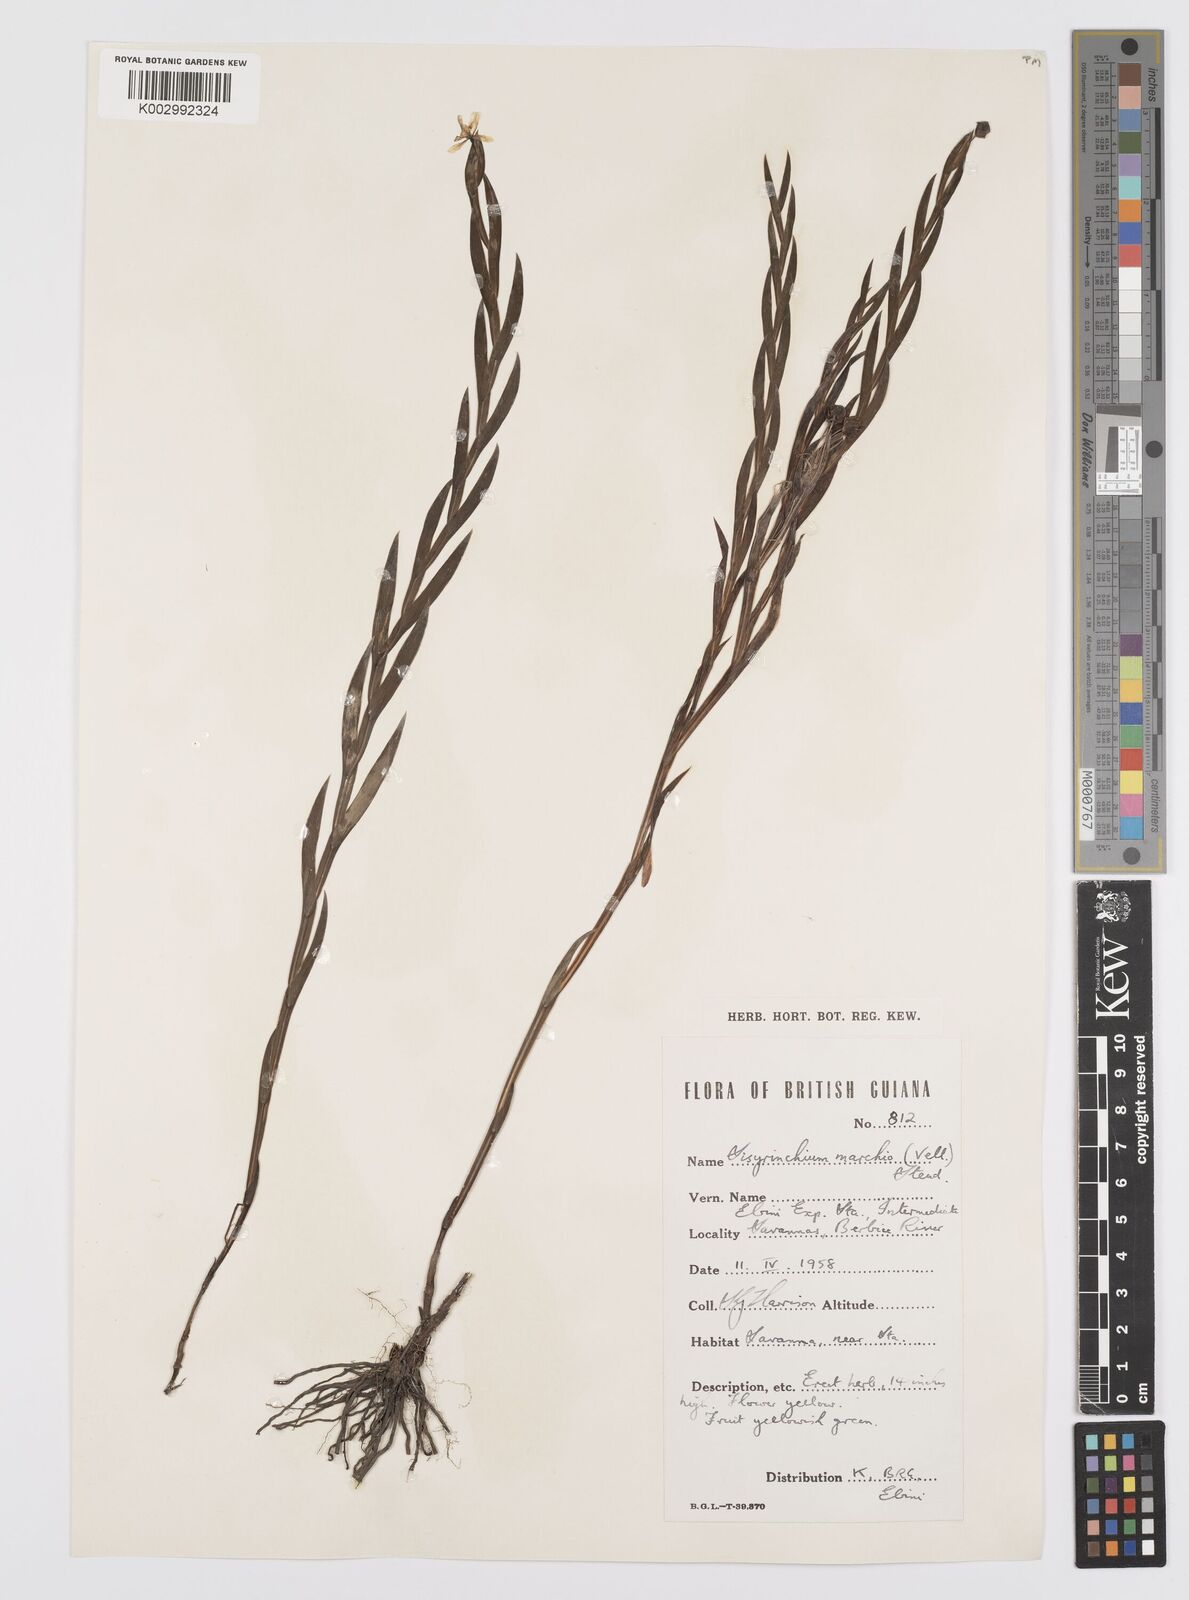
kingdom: Plantae
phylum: Tracheophyta
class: Liliopsida
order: Asparagales
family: Iridaceae
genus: Sisyrinchium
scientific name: Sisyrinchium vaginatum
